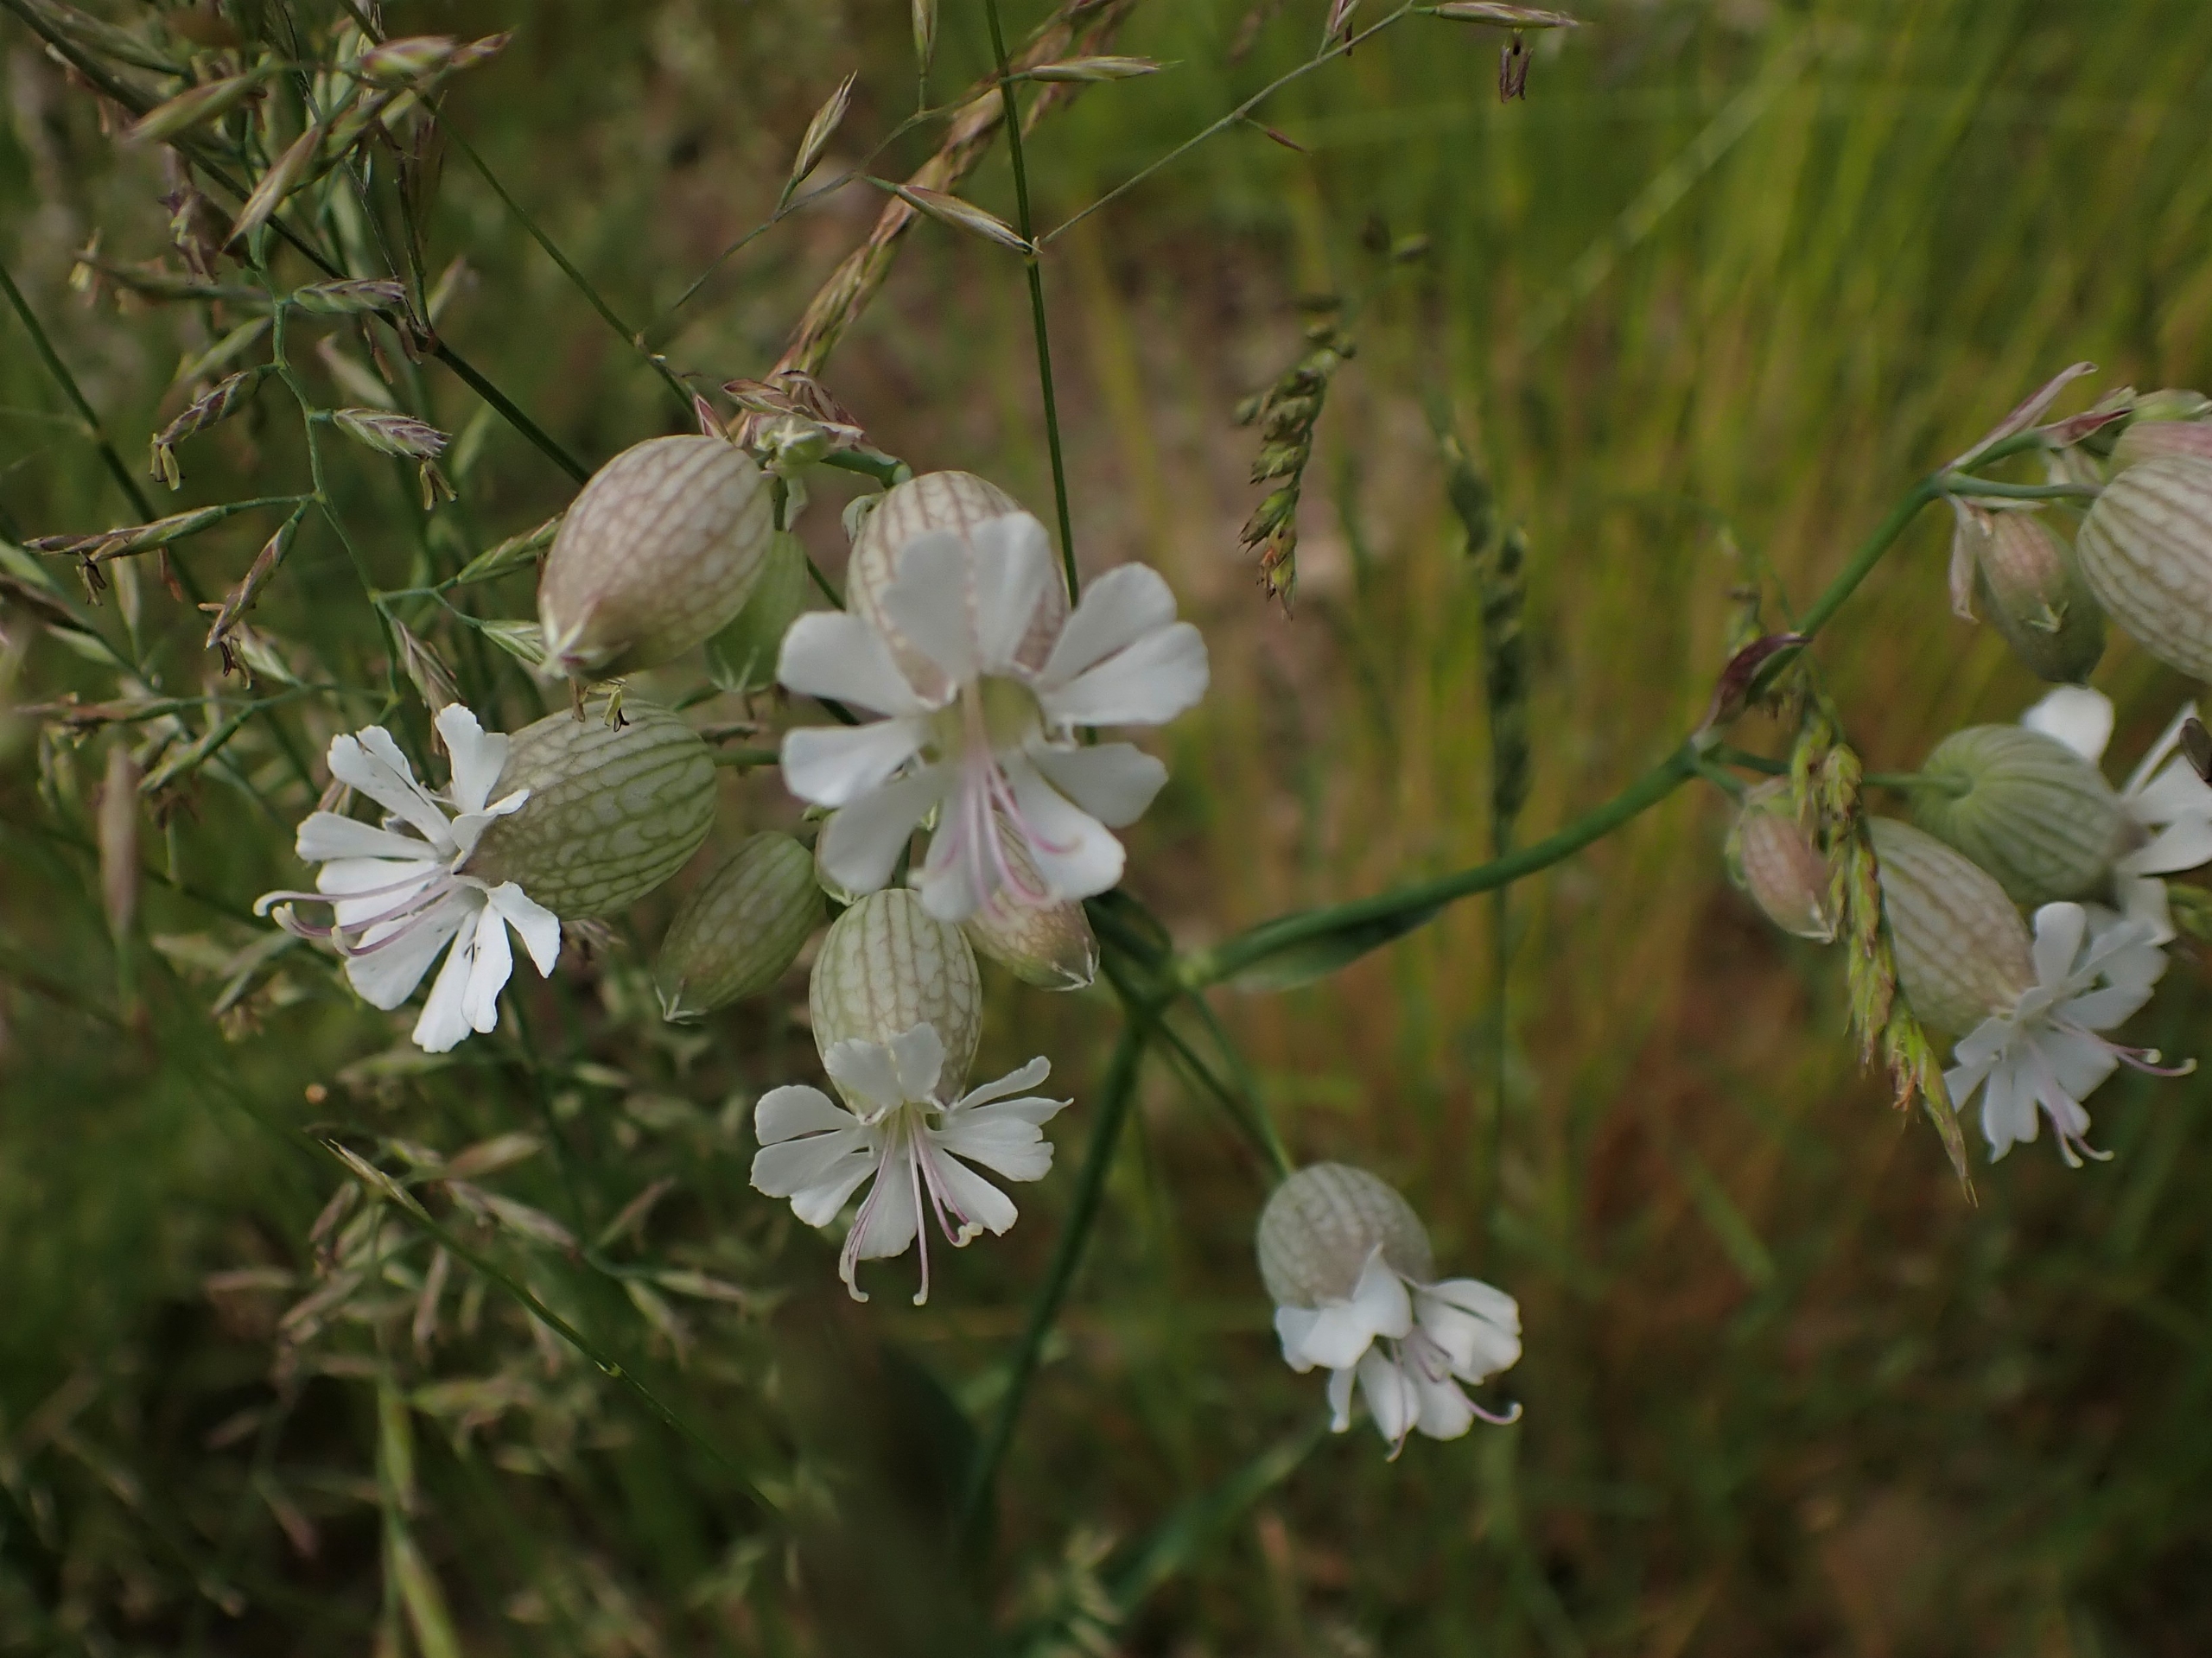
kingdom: Plantae
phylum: Tracheophyta
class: Magnoliopsida
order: Caryophyllales
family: Caryophyllaceae
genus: Silene
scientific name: Silene vulgaris
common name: Blæresmælde
